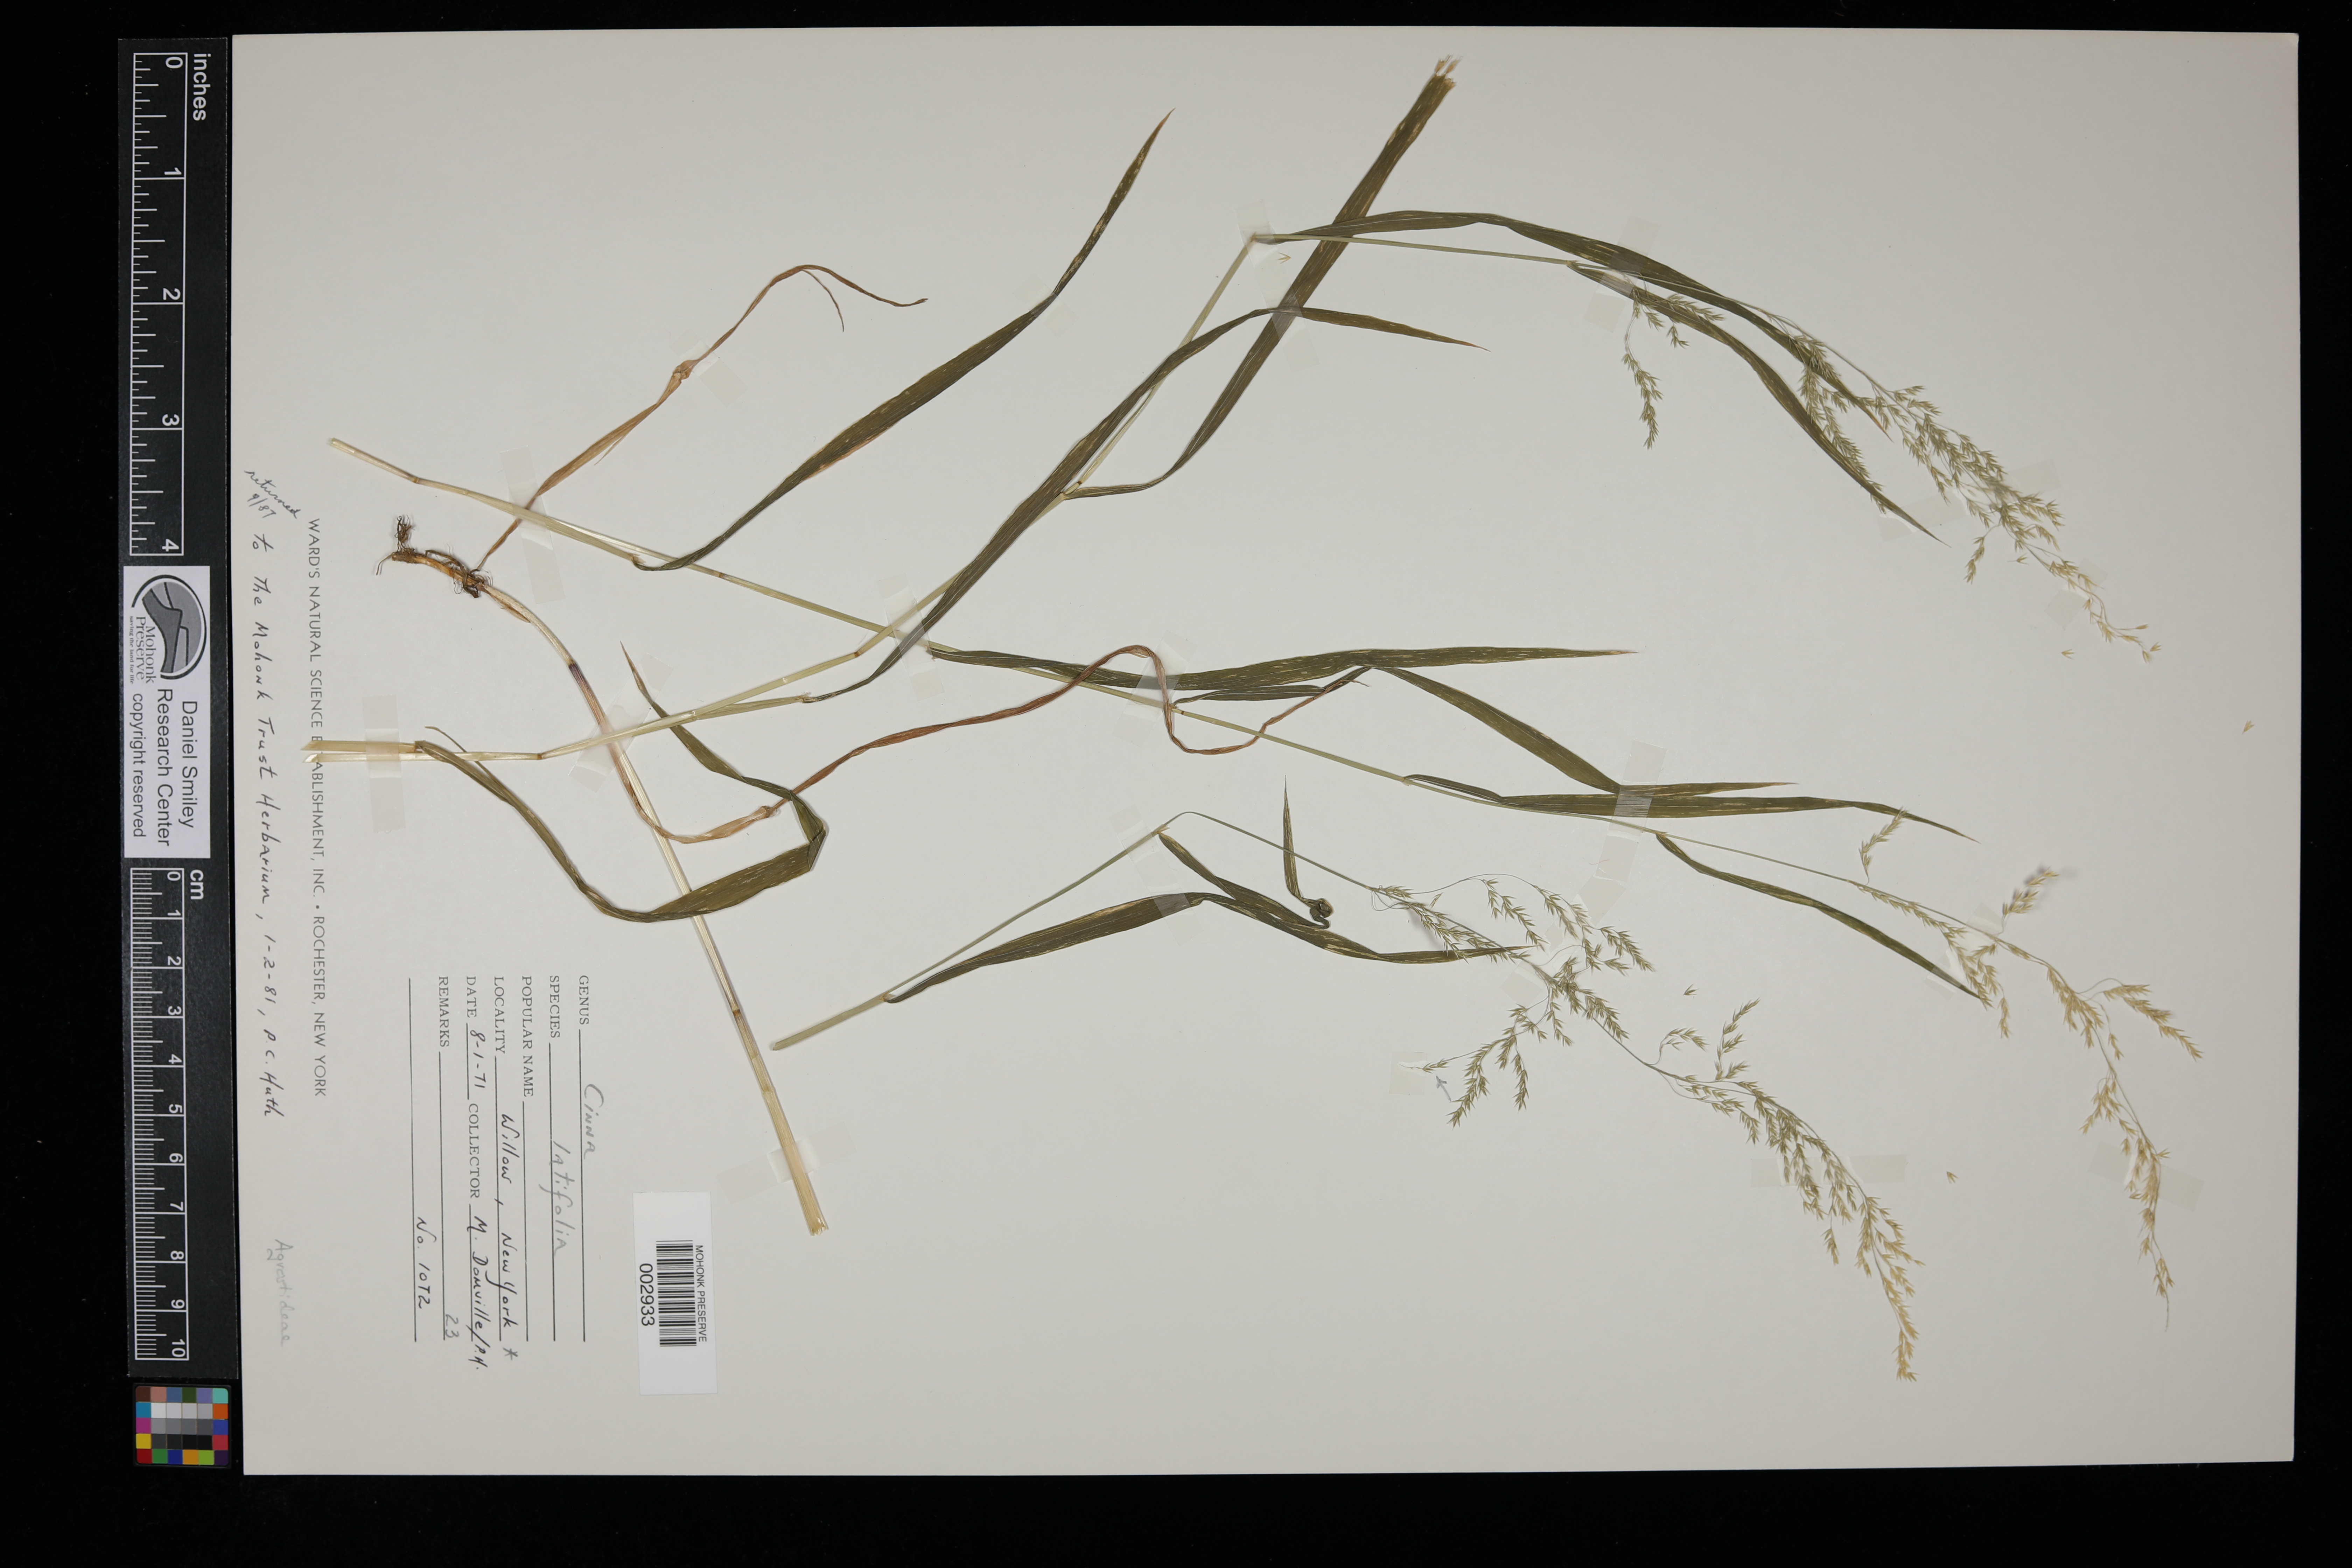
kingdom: Plantae
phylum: Tracheophyta
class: Liliopsida
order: Poales
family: Poaceae
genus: Cinna
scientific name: Cinna latifolia
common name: Drooping woodreed
